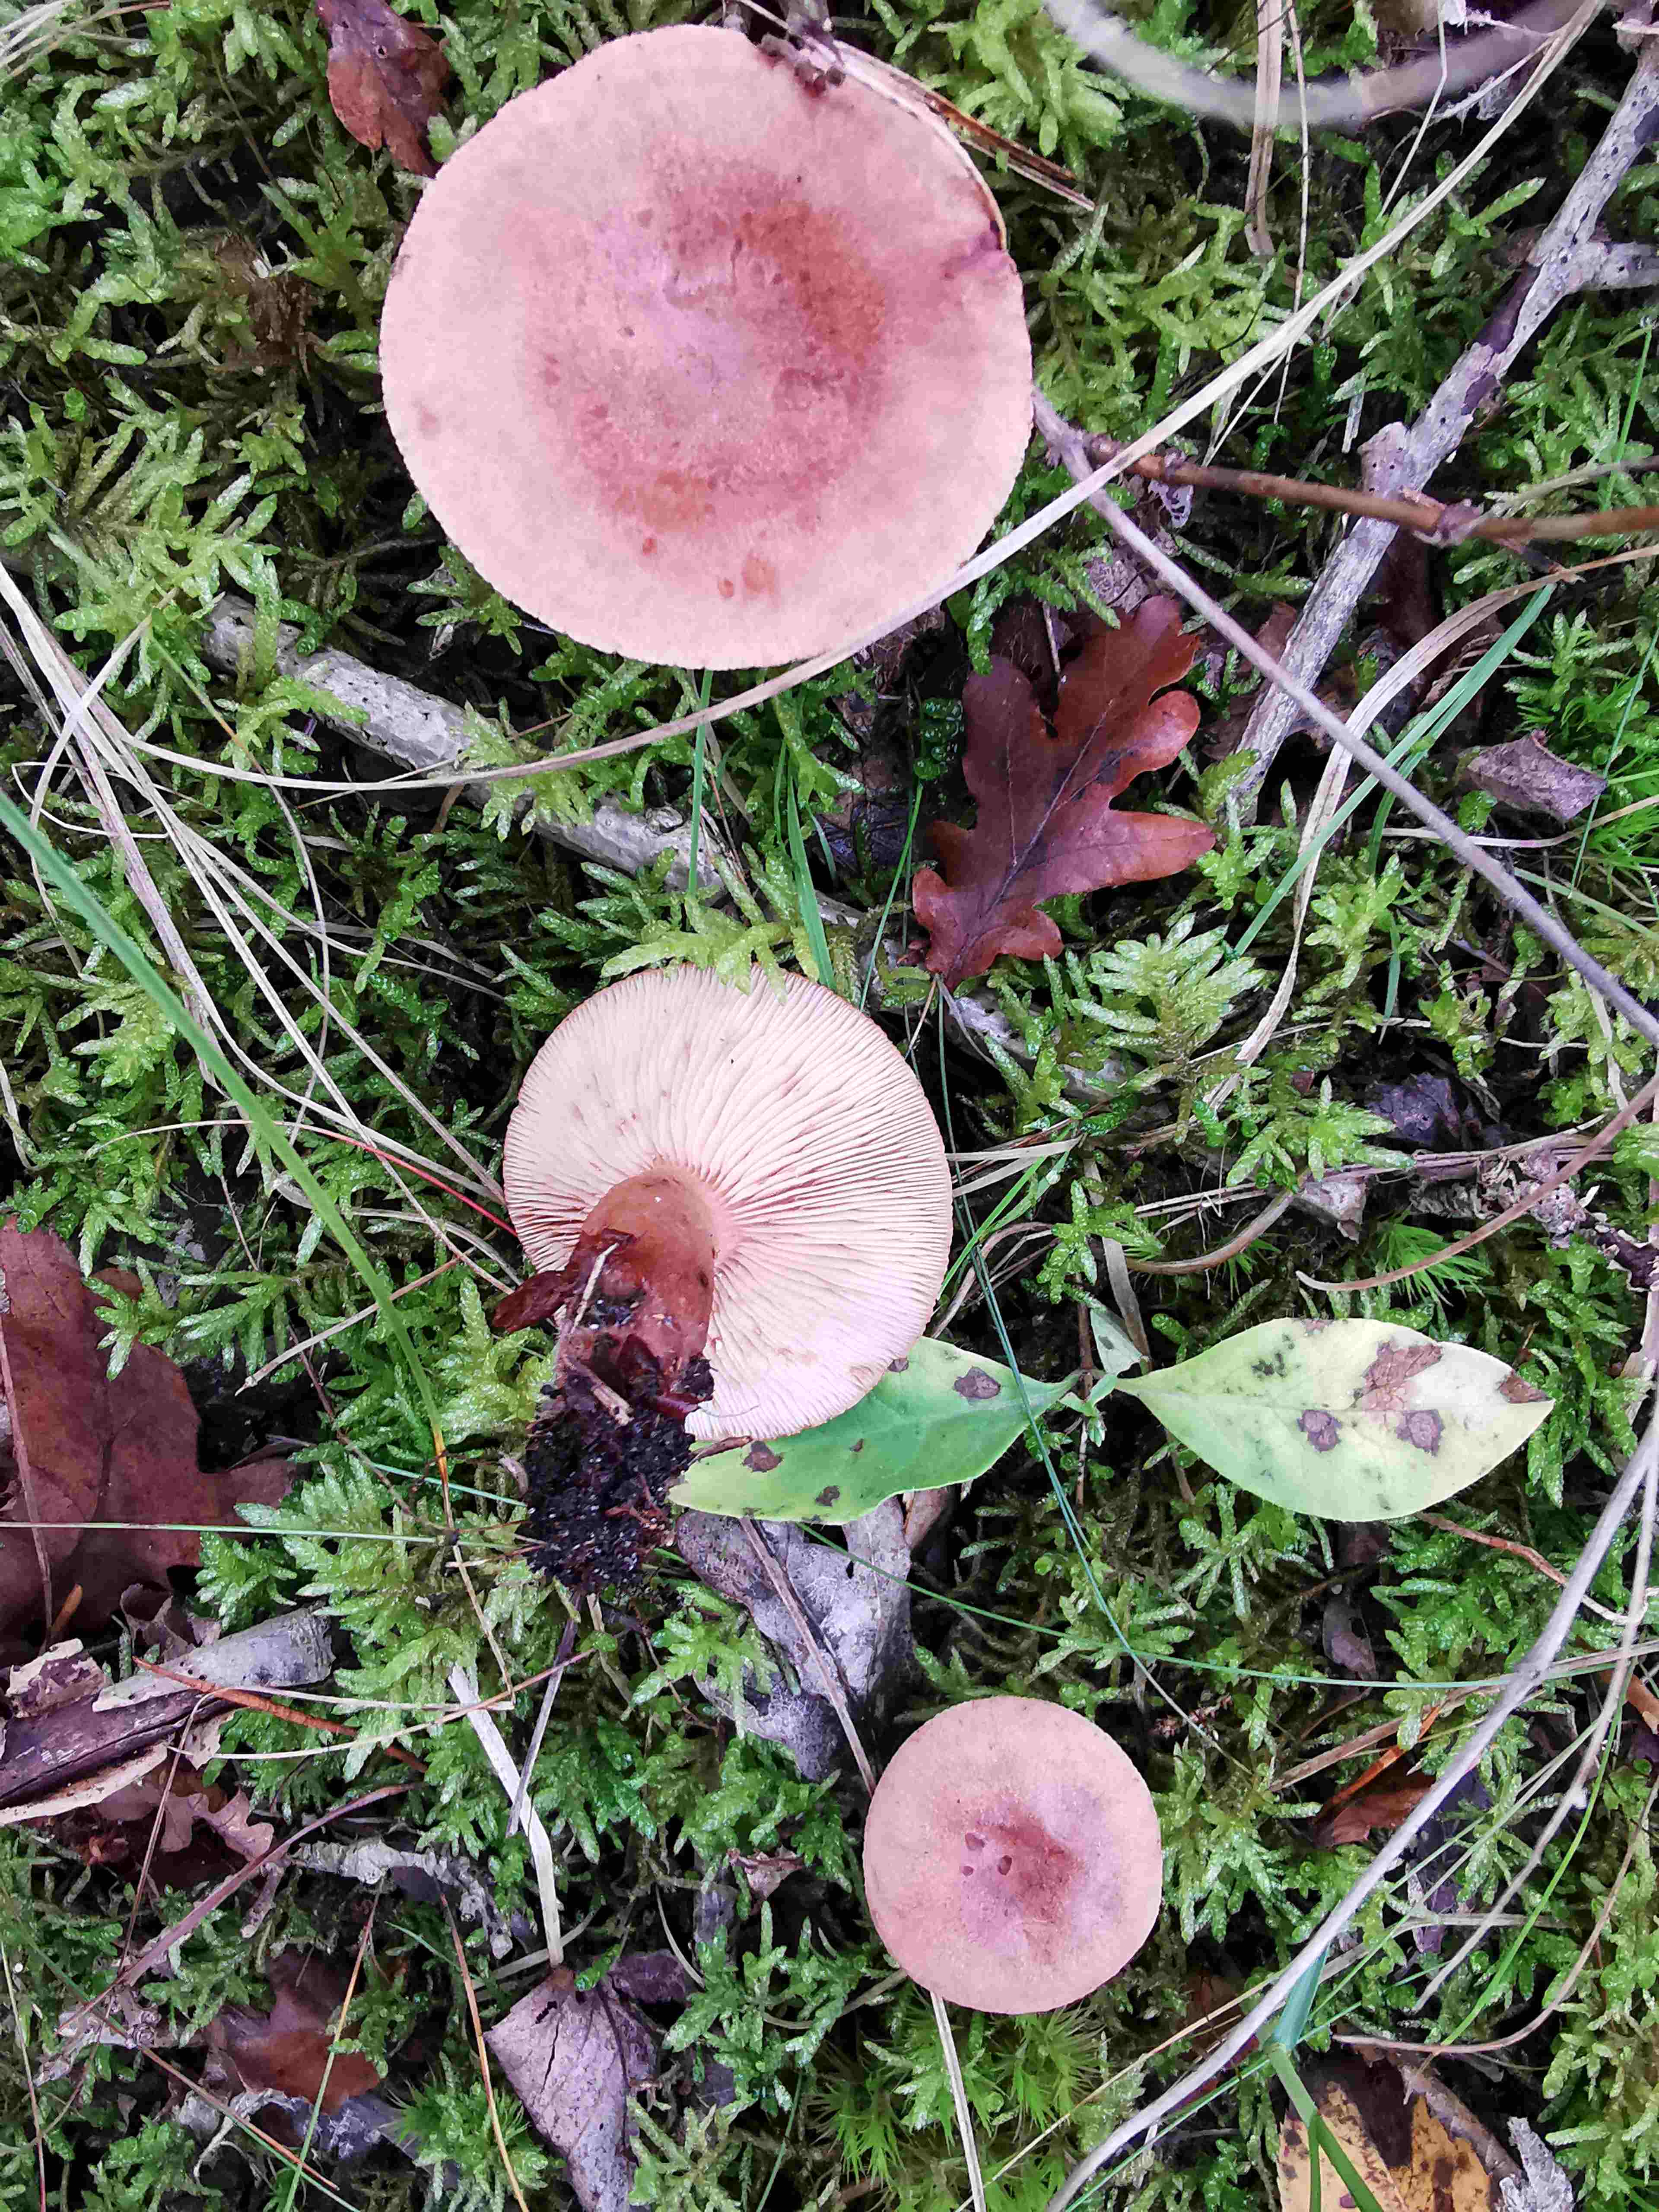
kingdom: Fungi
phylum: Basidiomycota
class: Agaricomycetes
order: Russulales
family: Russulaceae
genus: Lactarius
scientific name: Lactarius quietus
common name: ege-mælkehat
